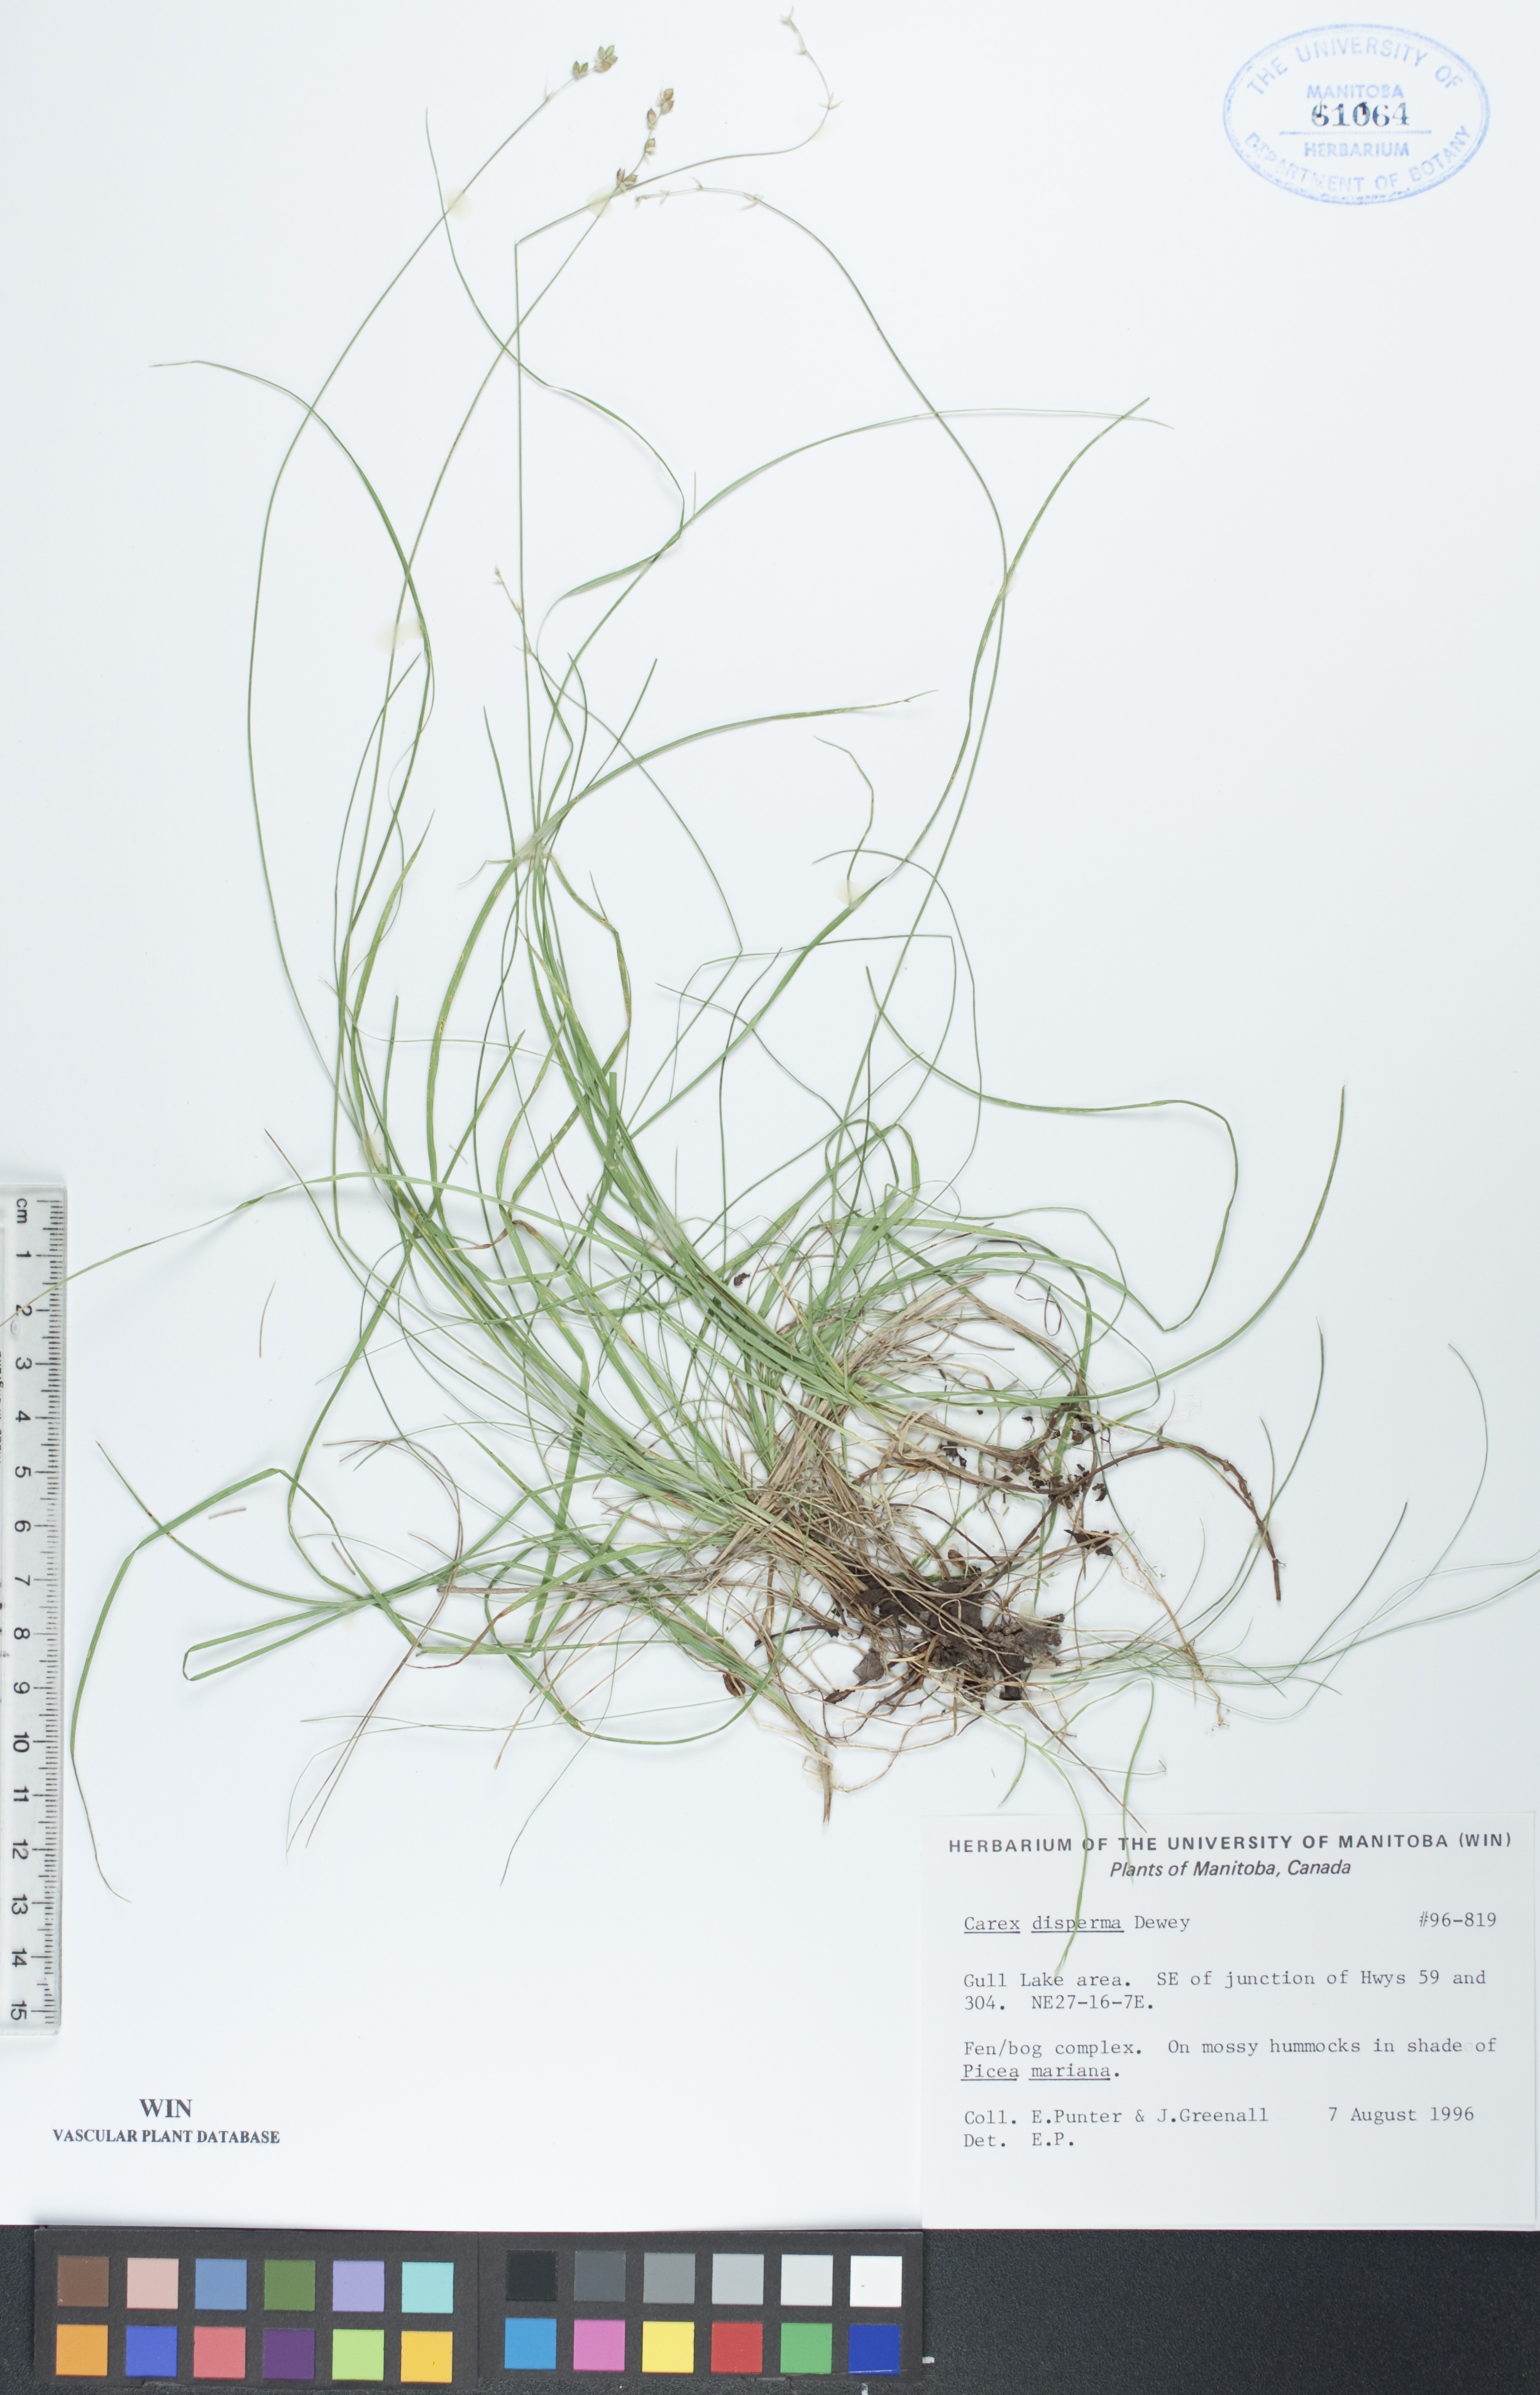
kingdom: Plantae
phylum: Tracheophyta
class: Liliopsida
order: Poales
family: Cyperaceae
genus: Carex
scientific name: Carex disperma
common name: Short-leaved sedge
